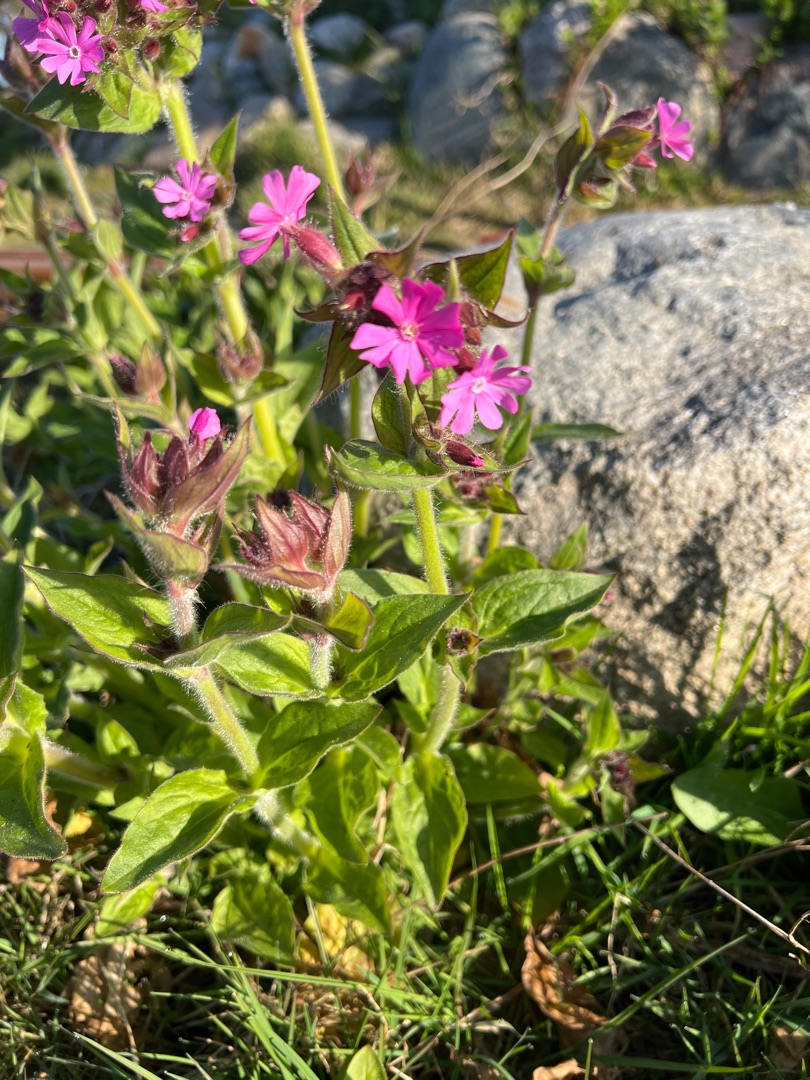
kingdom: Plantae
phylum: Tracheophyta
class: Magnoliopsida
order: Caryophyllales
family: Caryophyllaceae
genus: Silene
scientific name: Silene dioica
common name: Dagpragtstjerne
